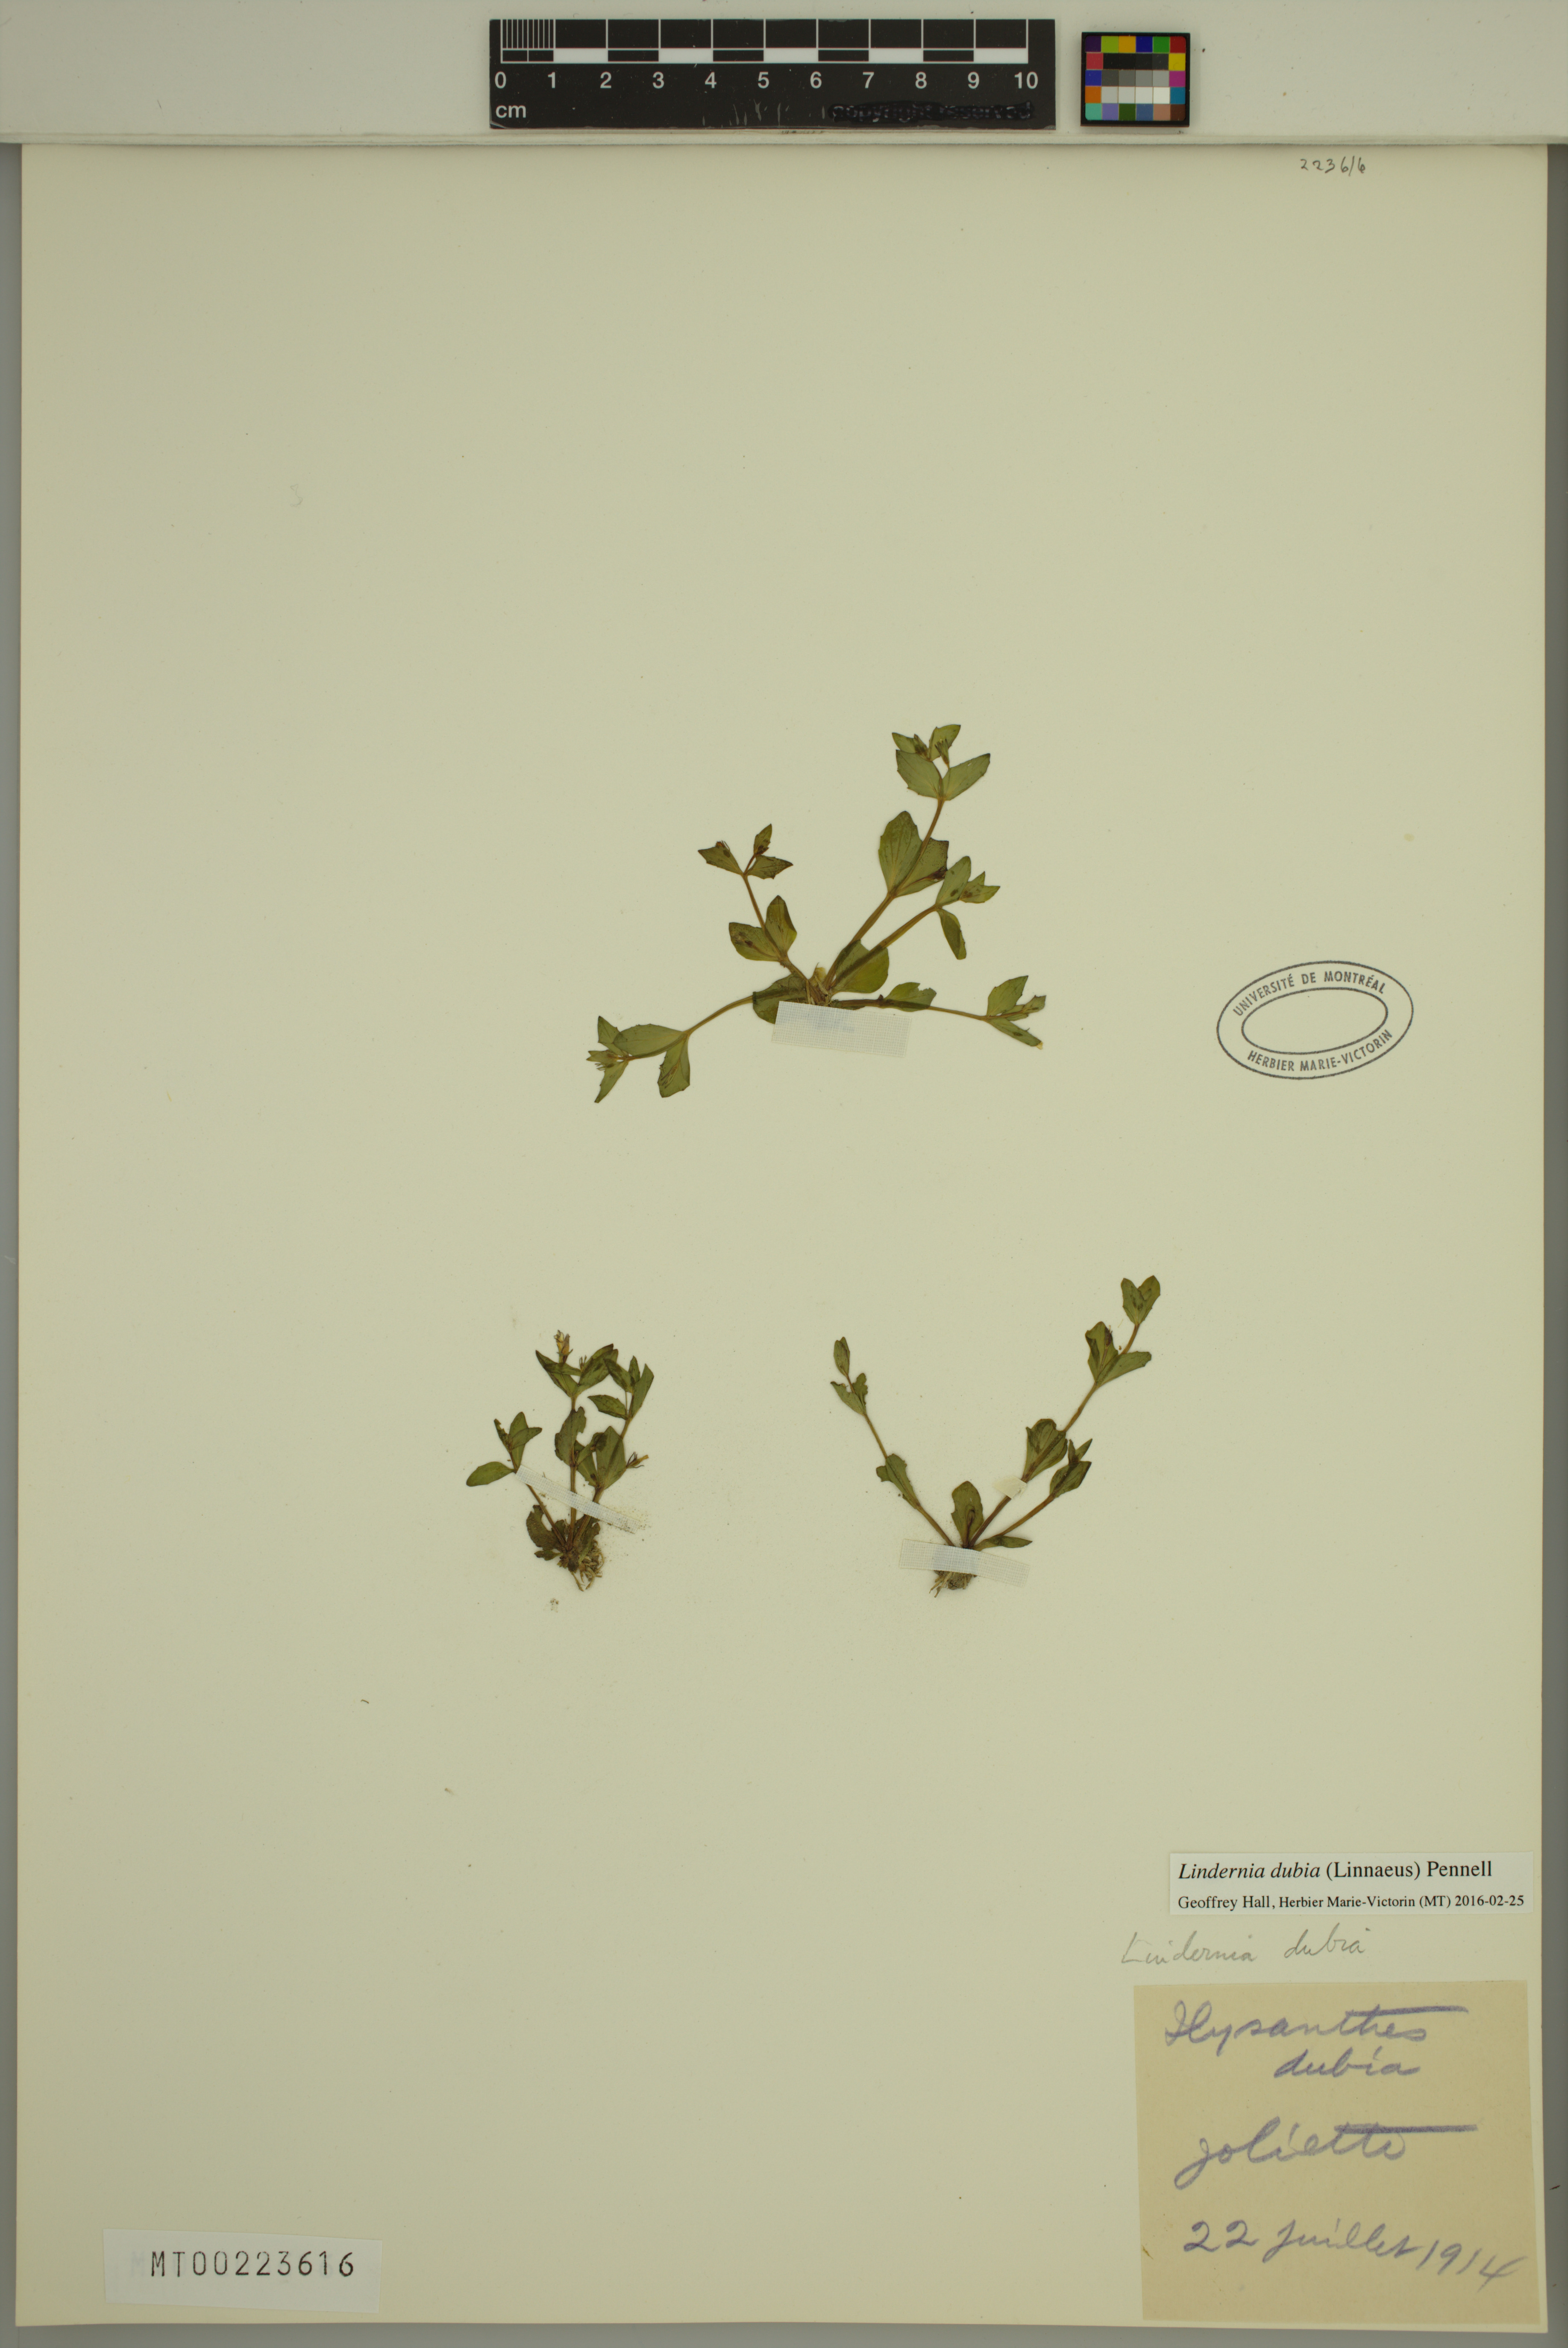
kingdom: Plantae
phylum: Tracheophyta
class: Magnoliopsida
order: Lamiales
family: Linderniaceae
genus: Lindernia
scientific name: Lindernia dubia
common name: Annual false pimpernel
